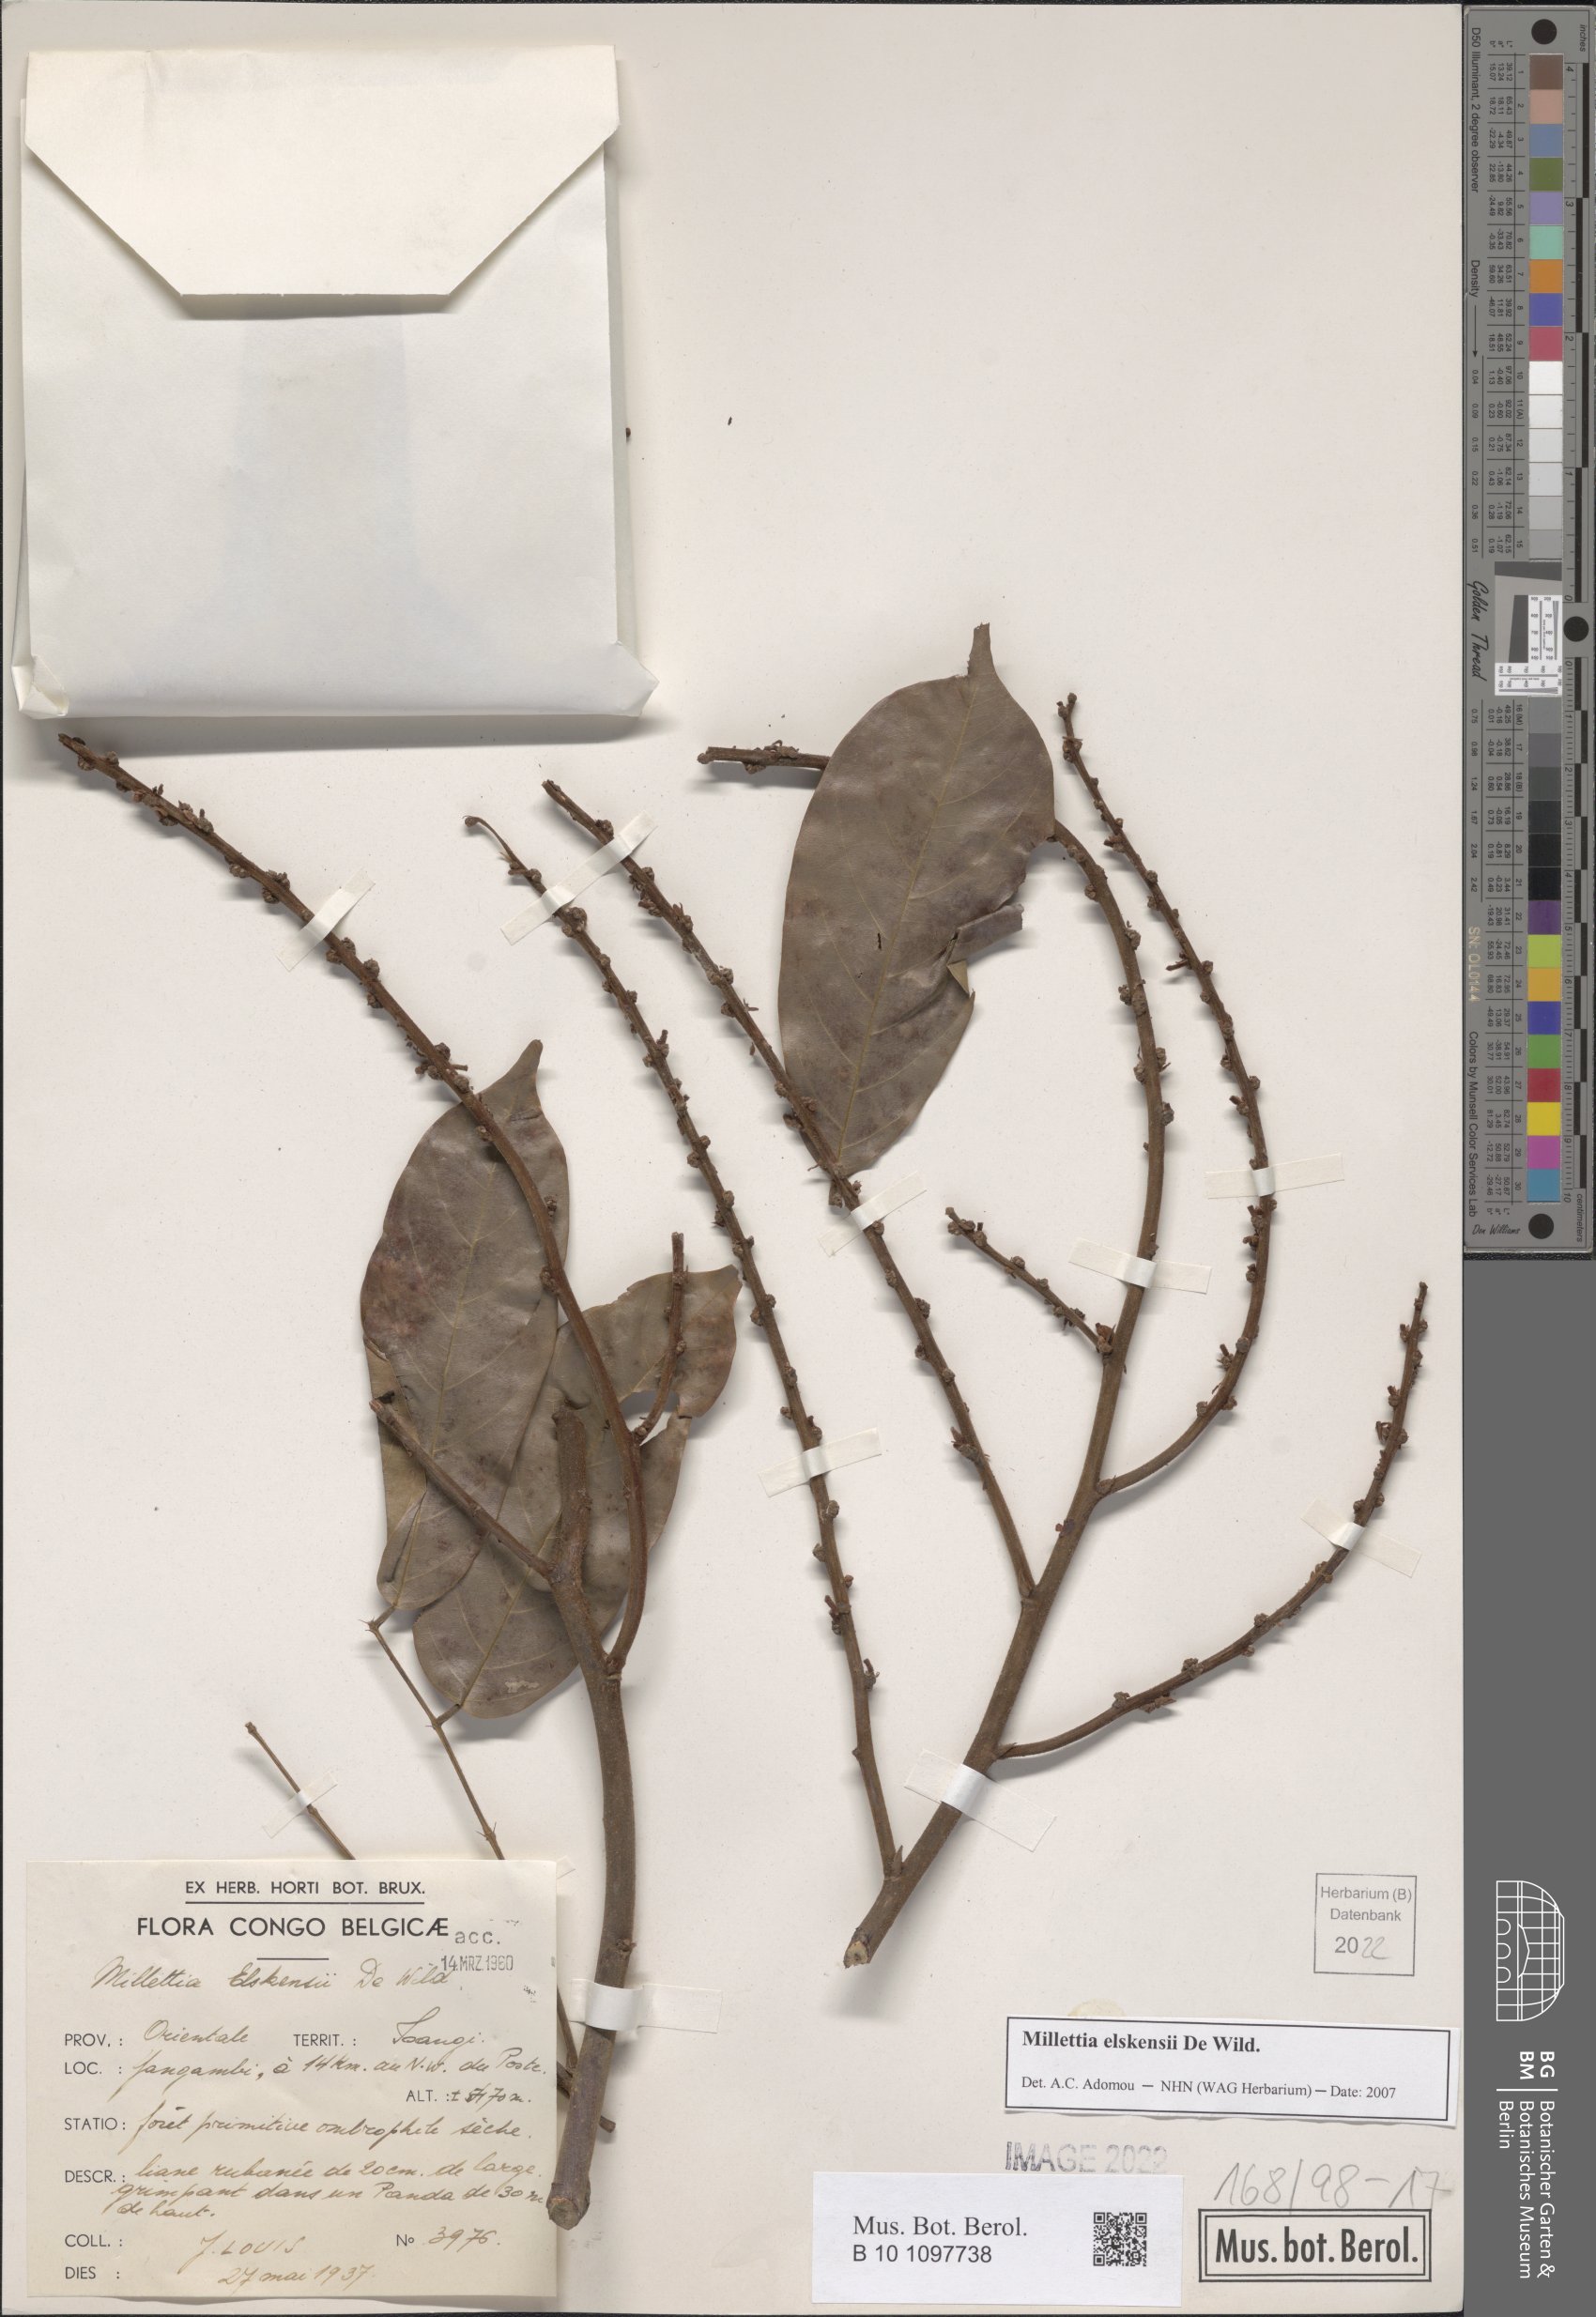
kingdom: Plantae
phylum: Tracheophyta
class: Magnoliopsida
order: Fabales
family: Fabaceae
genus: Millettia
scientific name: Millettia elskensii
